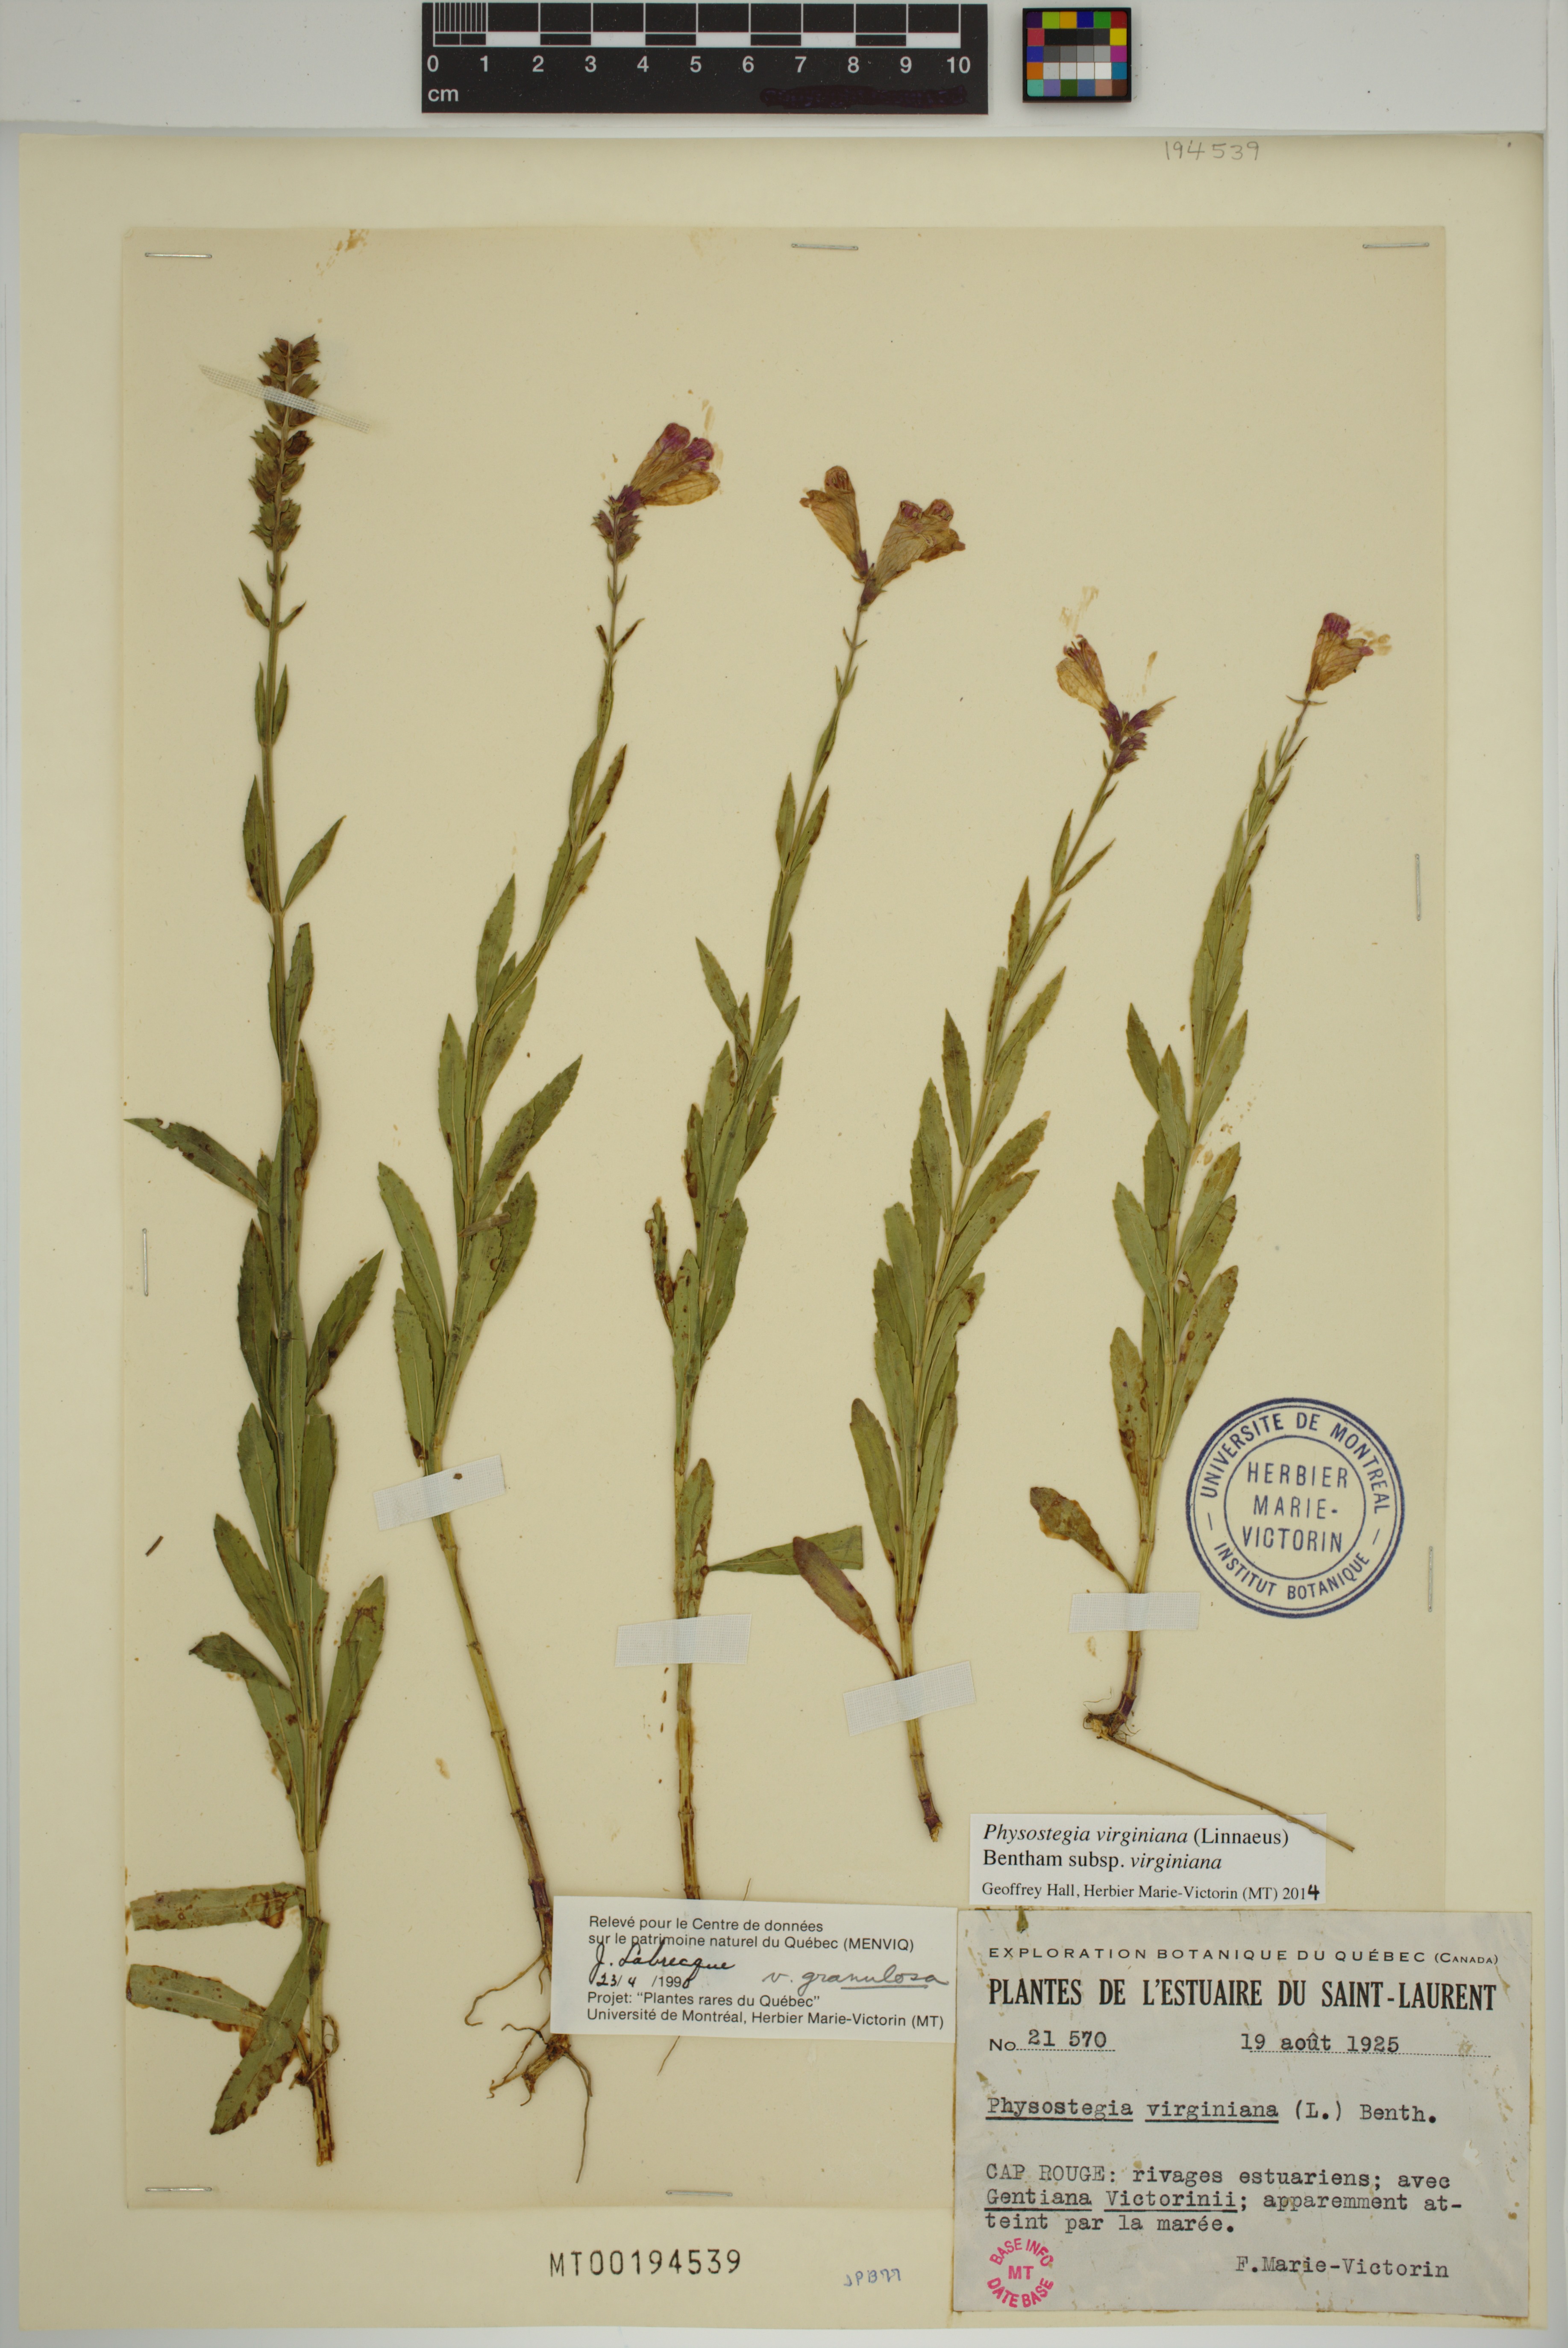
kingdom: Plantae
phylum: Tracheophyta
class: Magnoliopsida
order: Lamiales
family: Lamiaceae
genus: Physostegia
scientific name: Physostegia virginiana
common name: Obedient-plant
